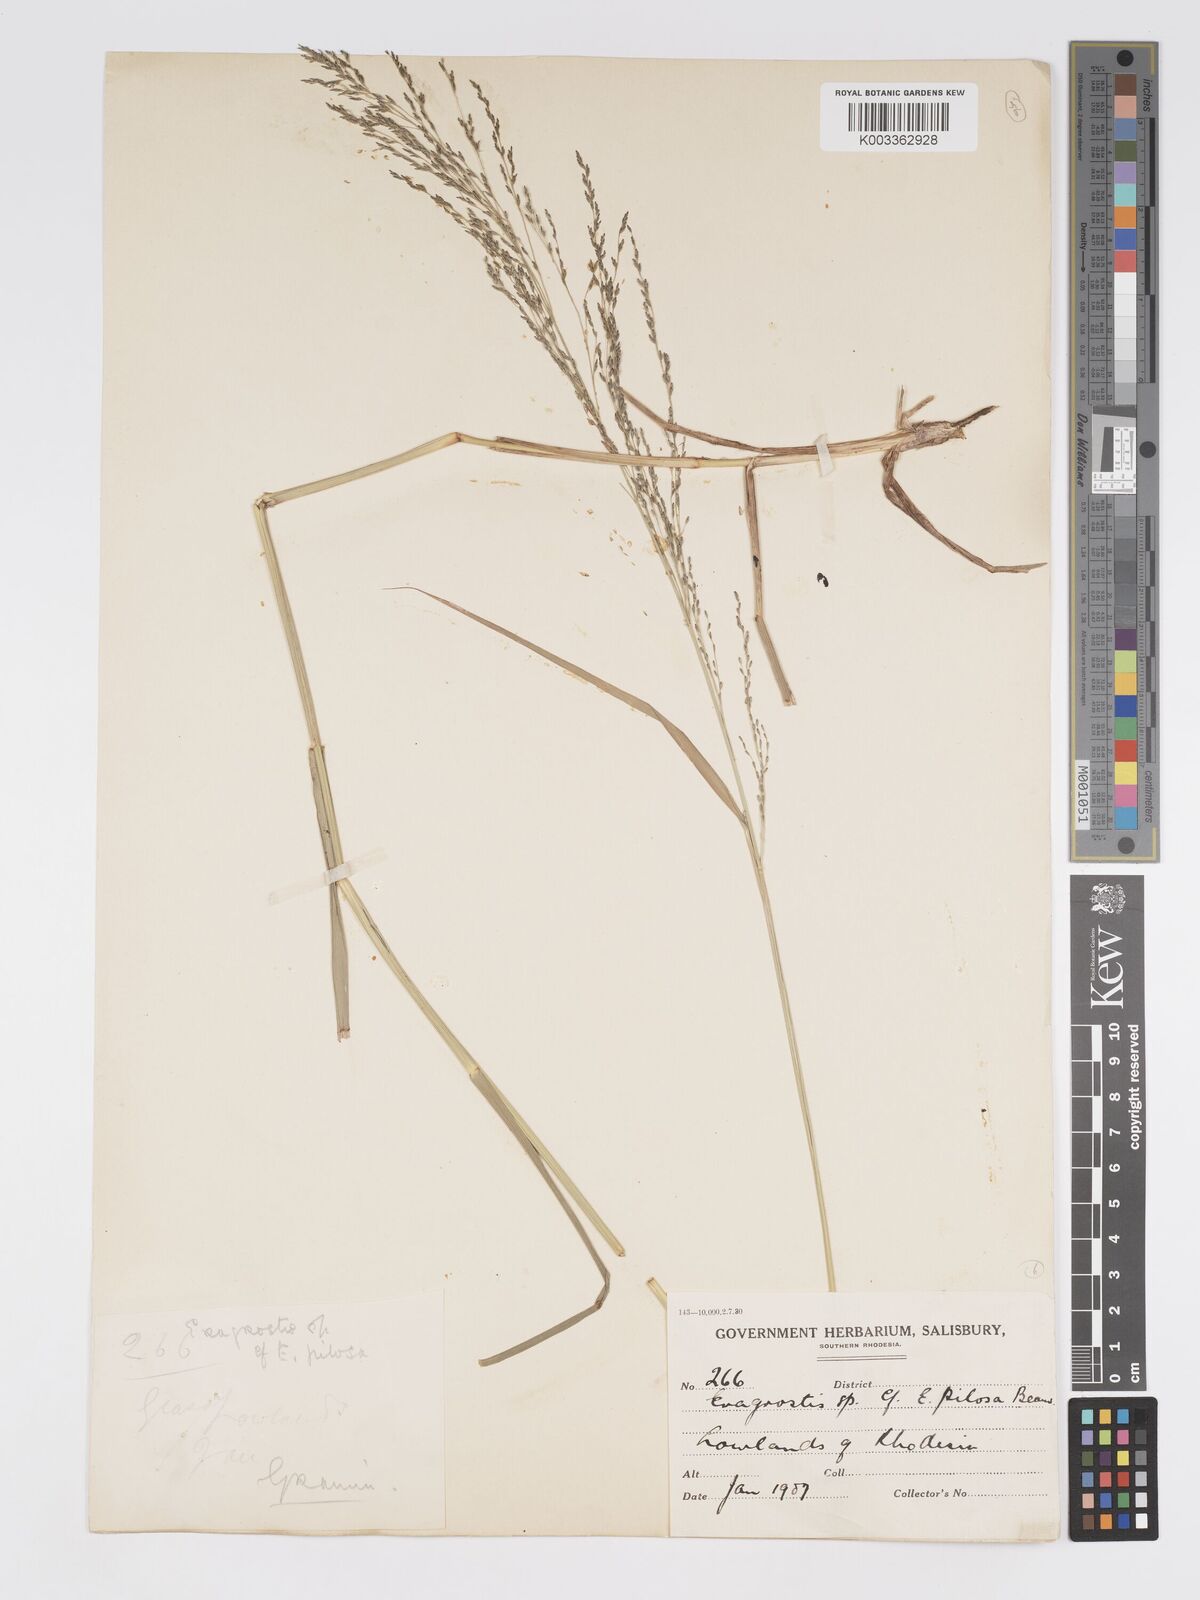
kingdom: Plantae
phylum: Tracheophyta
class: Liliopsida
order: Poales
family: Poaceae
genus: Eragrostis
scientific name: Eragrostis cylindriflora
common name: Cylinderflower lovegrass
